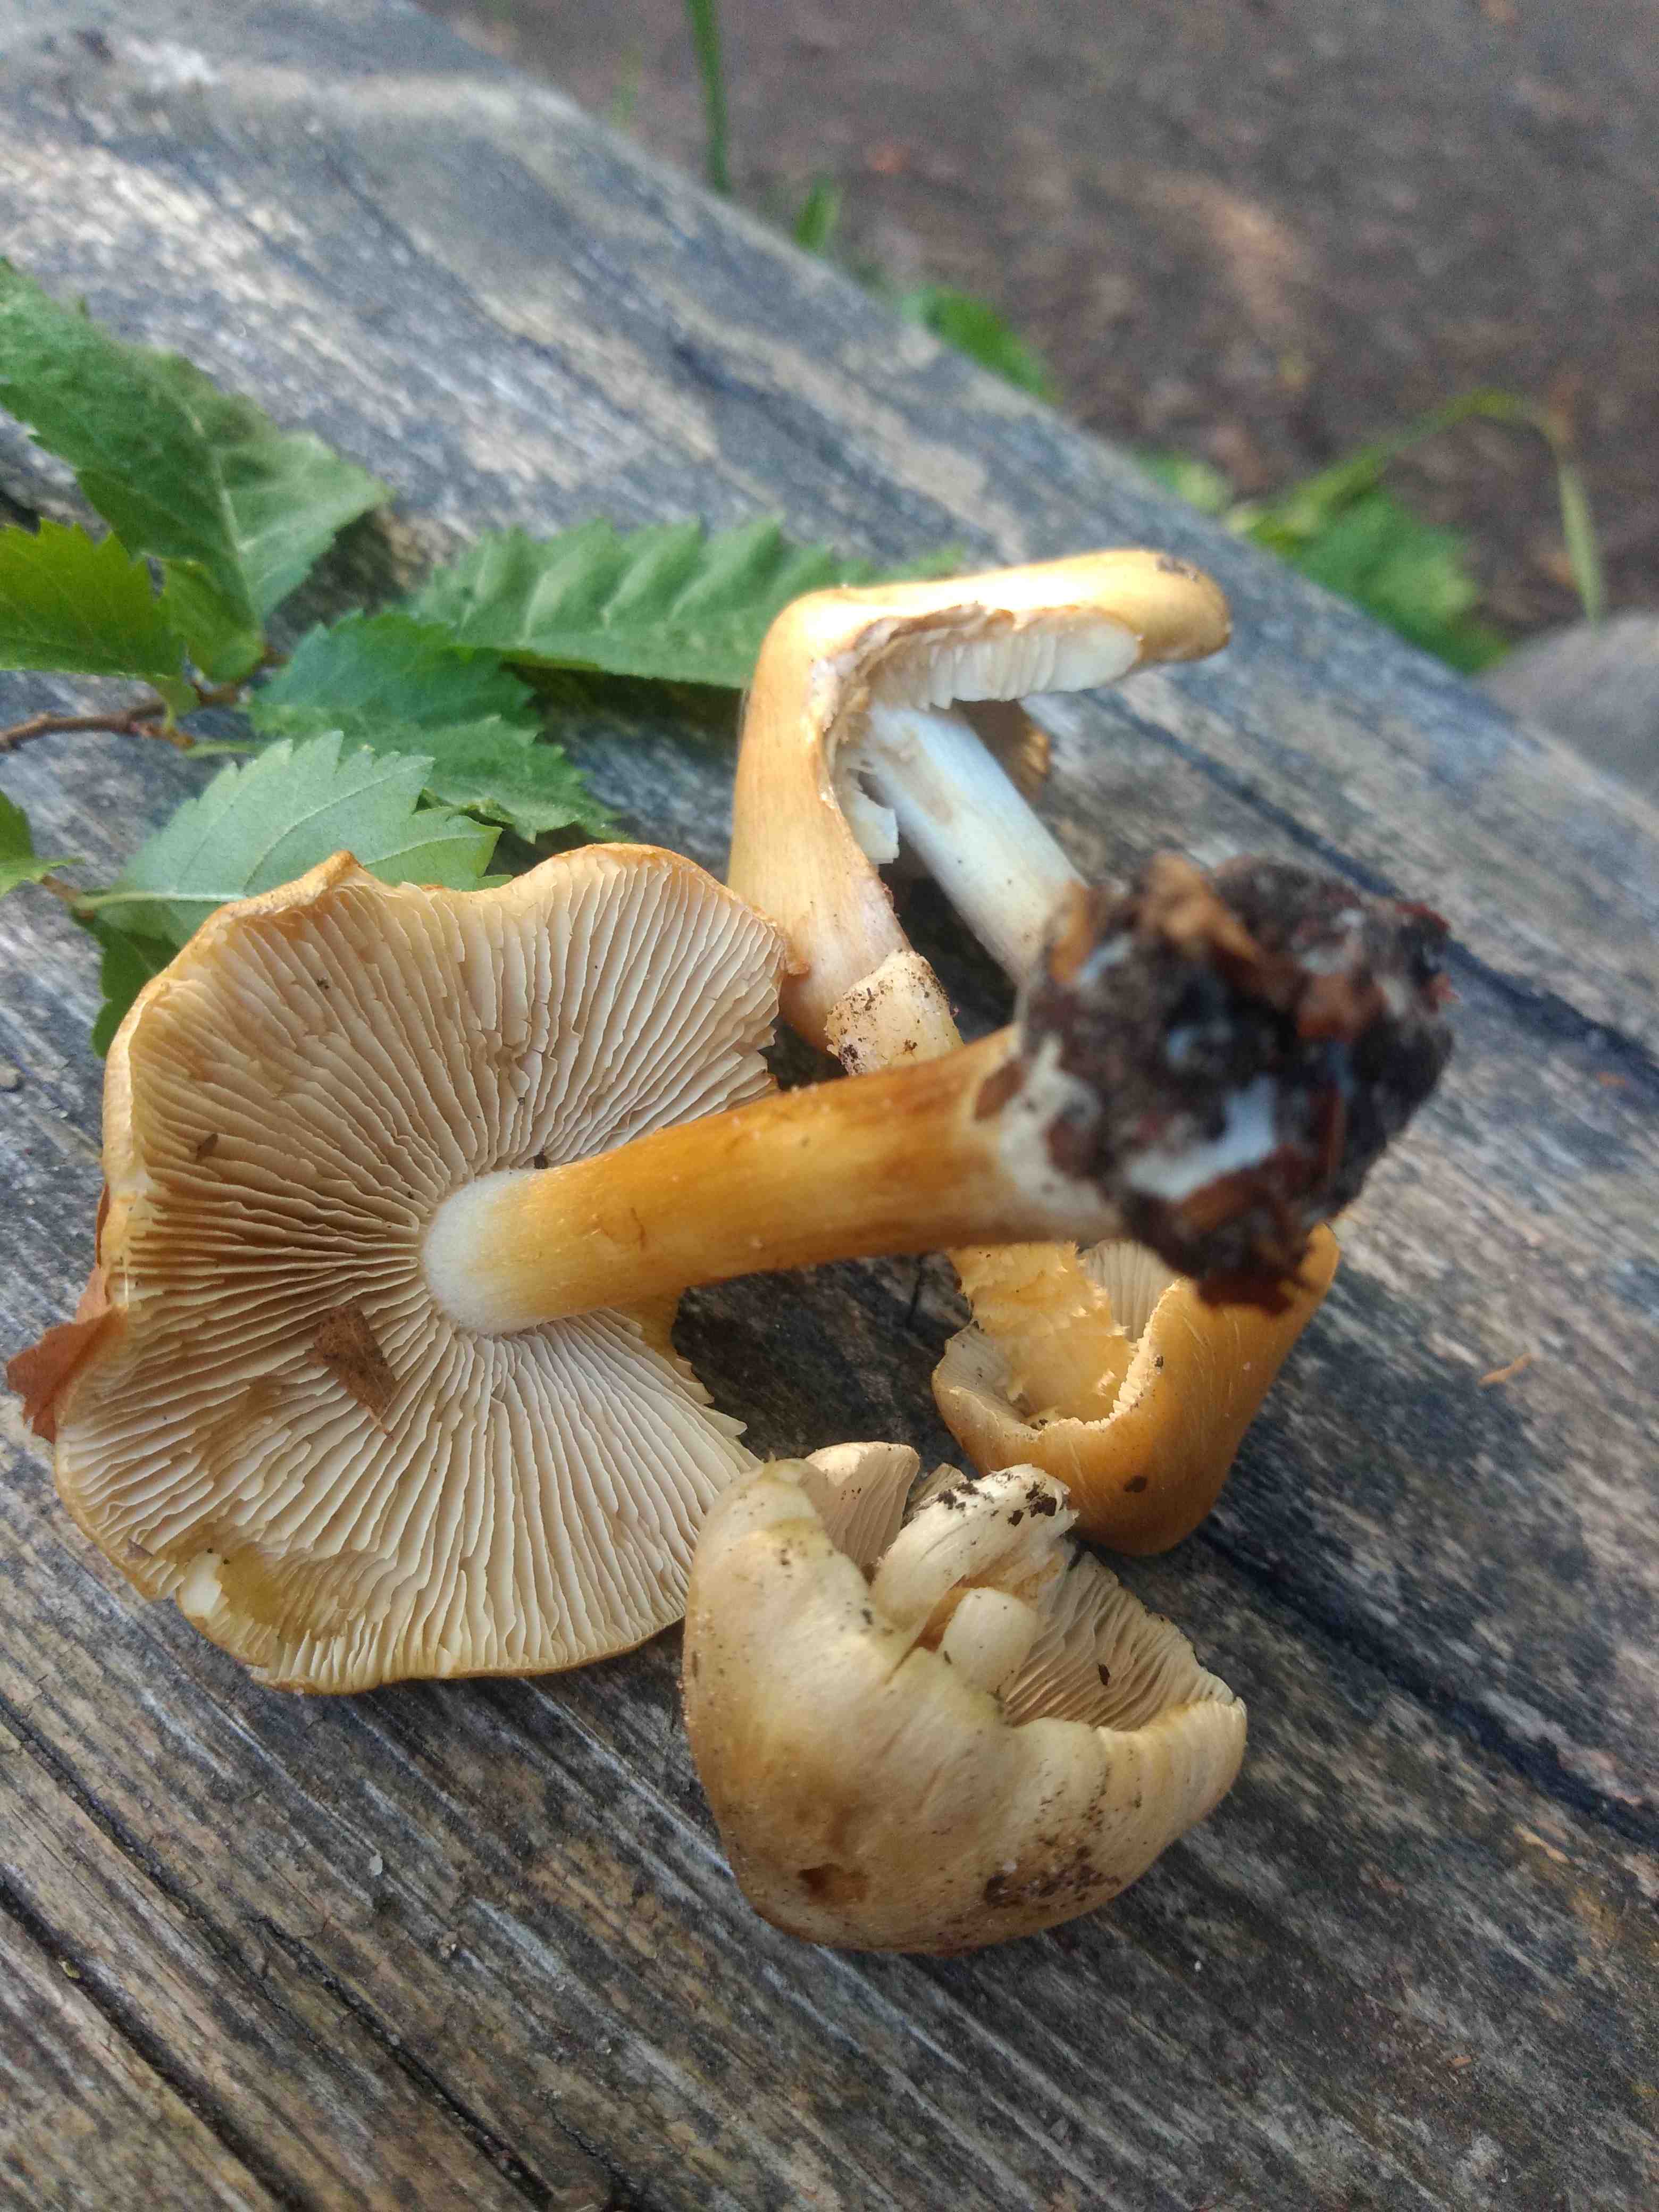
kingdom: Fungi
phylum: Basidiomycota
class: Agaricomycetes
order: Agaricales
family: Inocybaceae
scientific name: Inocybaceae
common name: trævlhatfamilien
